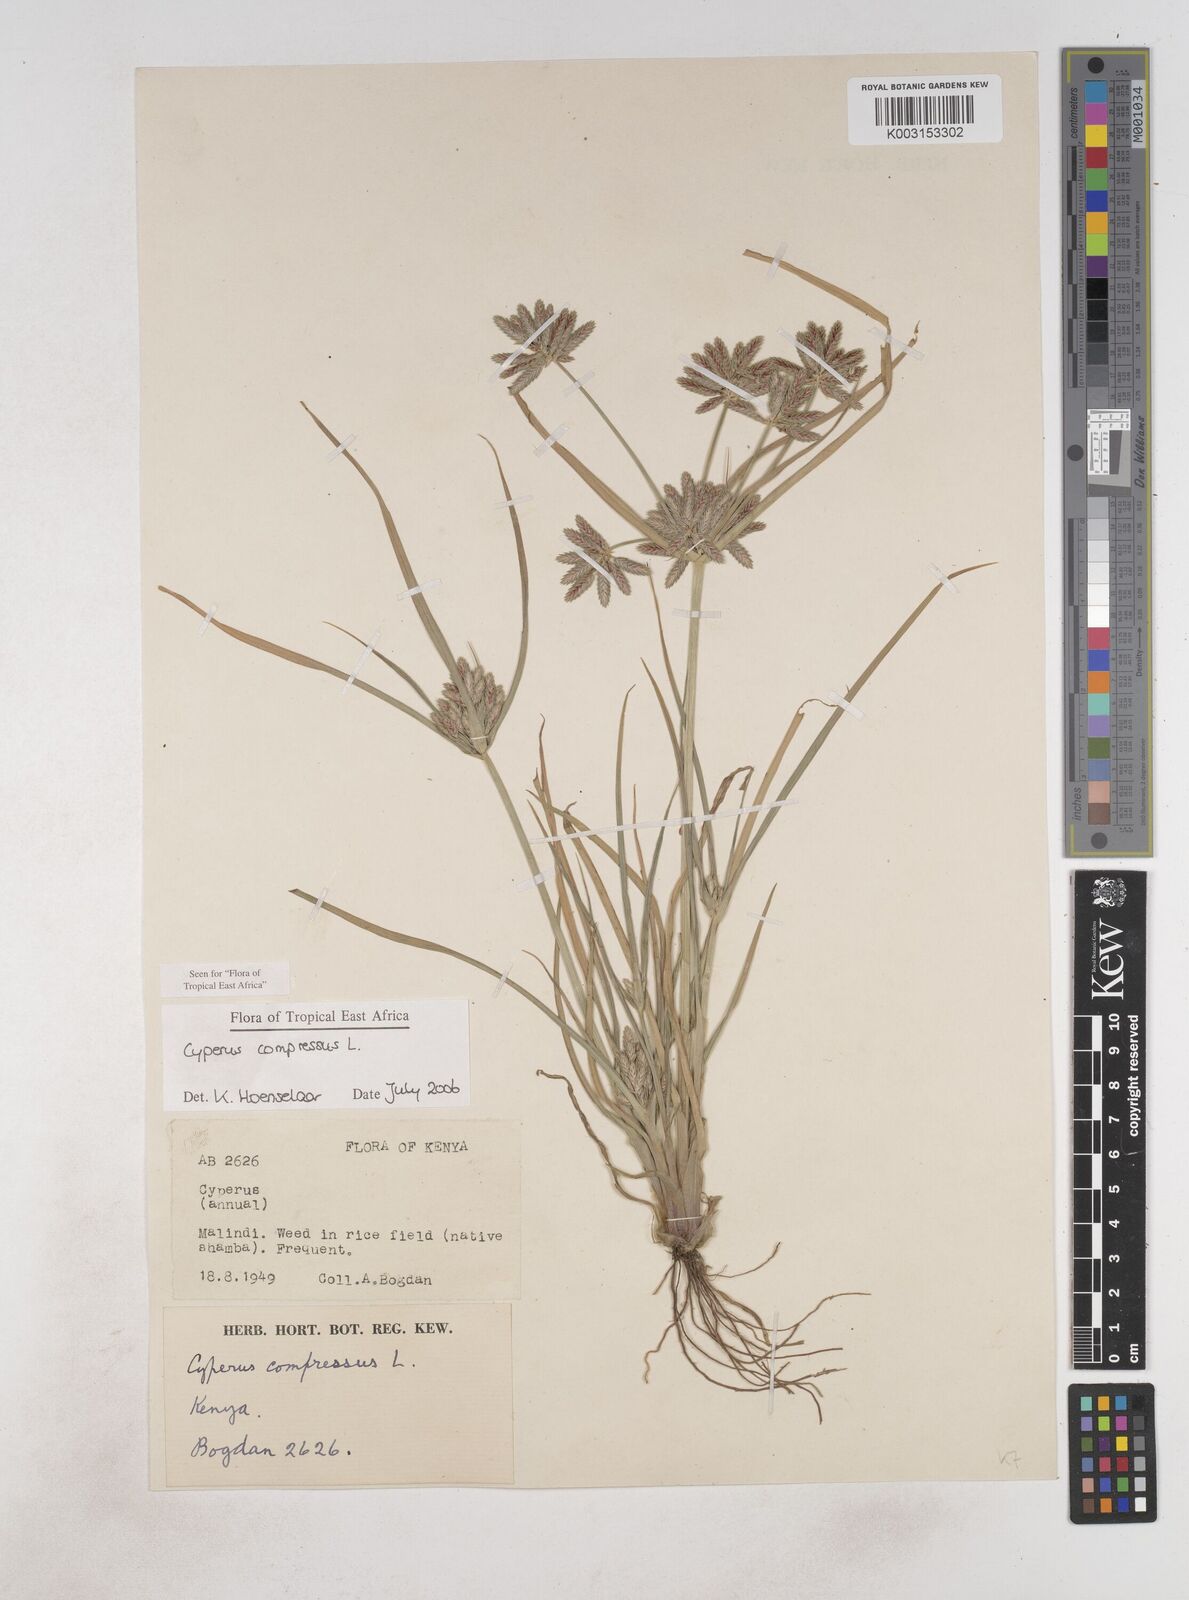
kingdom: Plantae
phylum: Tracheophyta
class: Liliopsida
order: Poales
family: Cyperaceae
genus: Cyperus
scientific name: Cyperus compressus
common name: Poorland flatsedge
